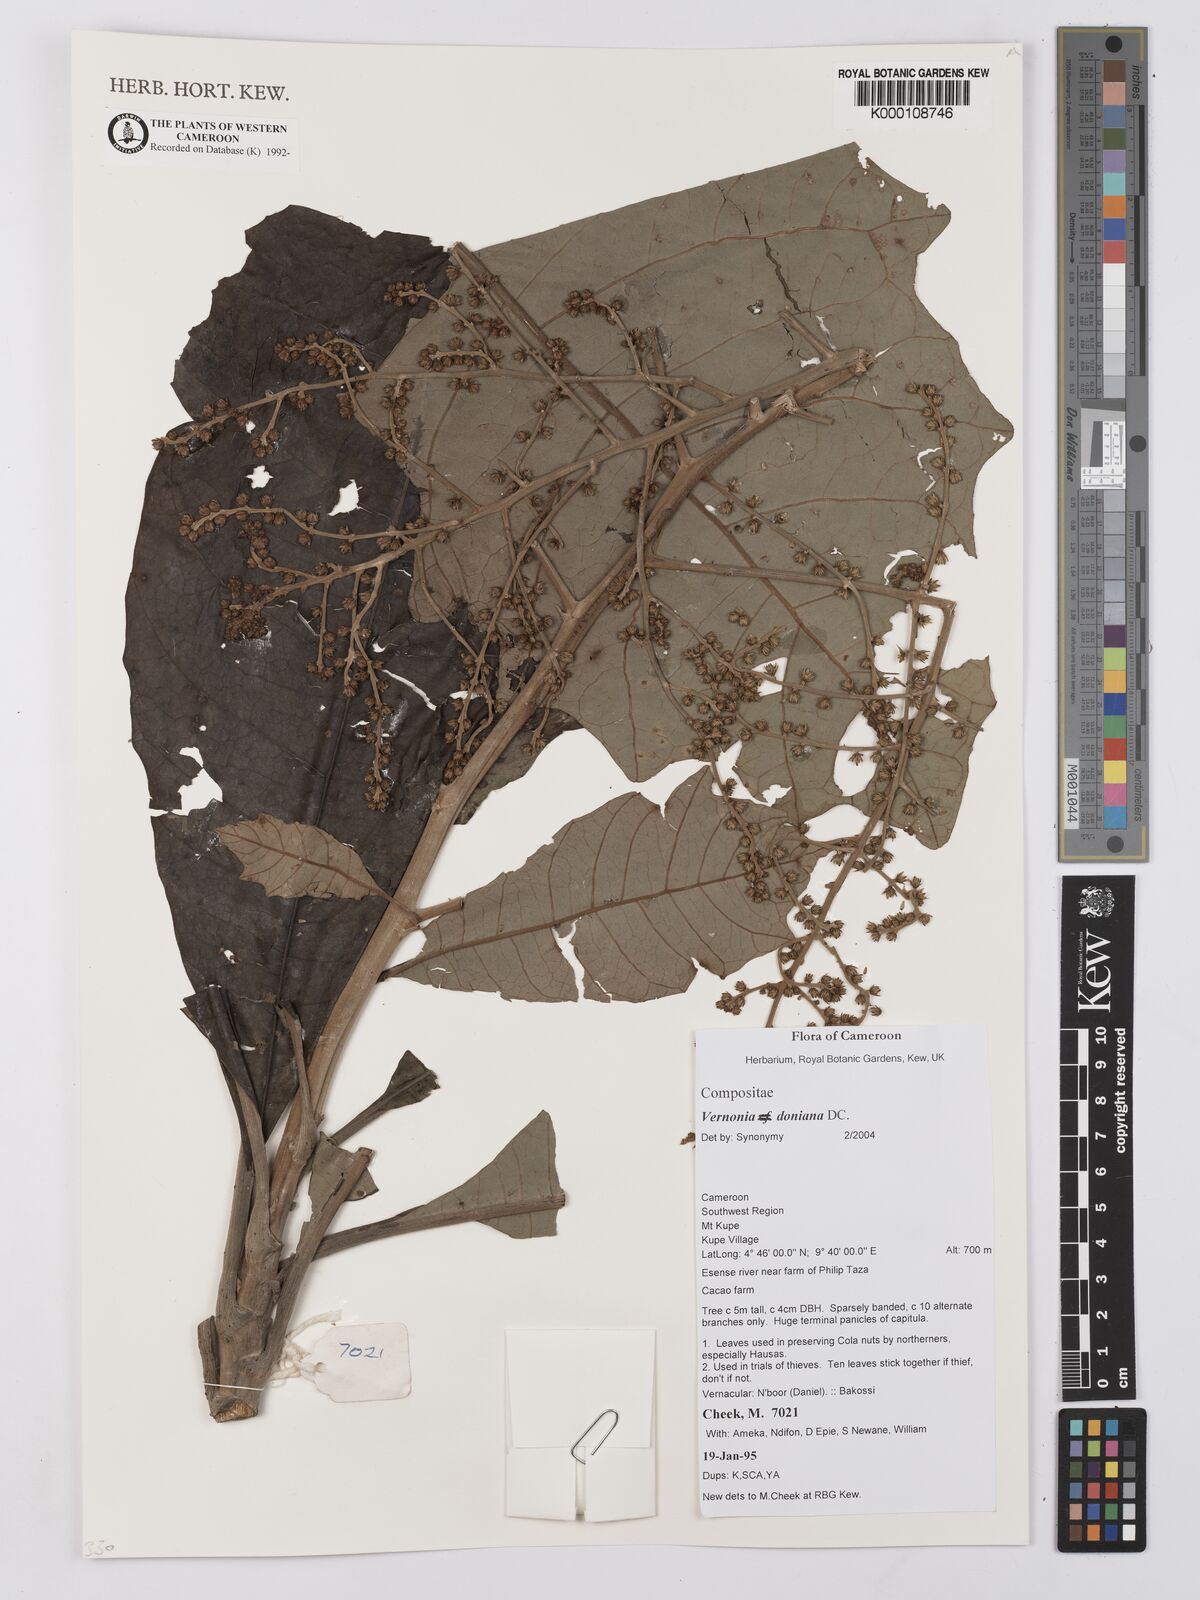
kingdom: Plantae
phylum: Tracheophyta
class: Magnoliopsida
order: Asterales
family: Asteraceae
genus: Brenandendron
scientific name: Brenandendron donianum
